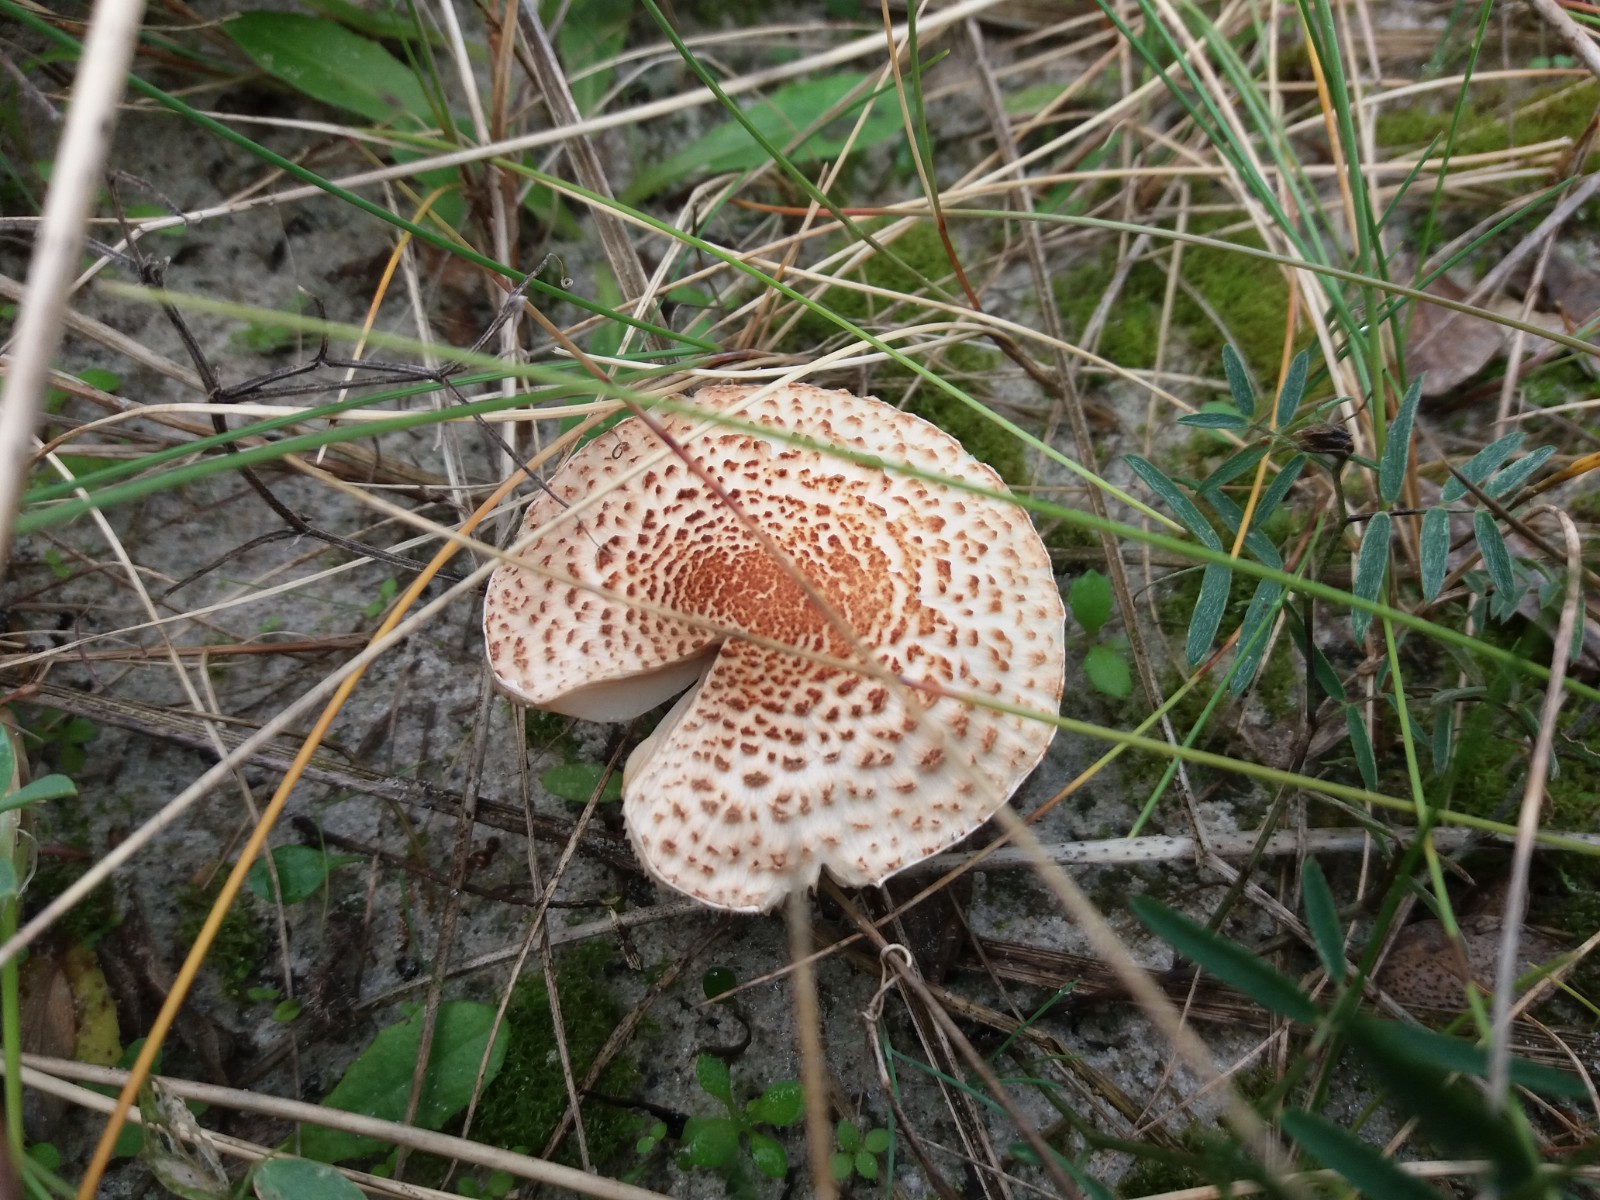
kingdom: Fungi
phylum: Basidiomycota
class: Agaricomycetes
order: Agaricales
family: Agaricaceae
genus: Lepiota
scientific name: Lepiota
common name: parasolhat
